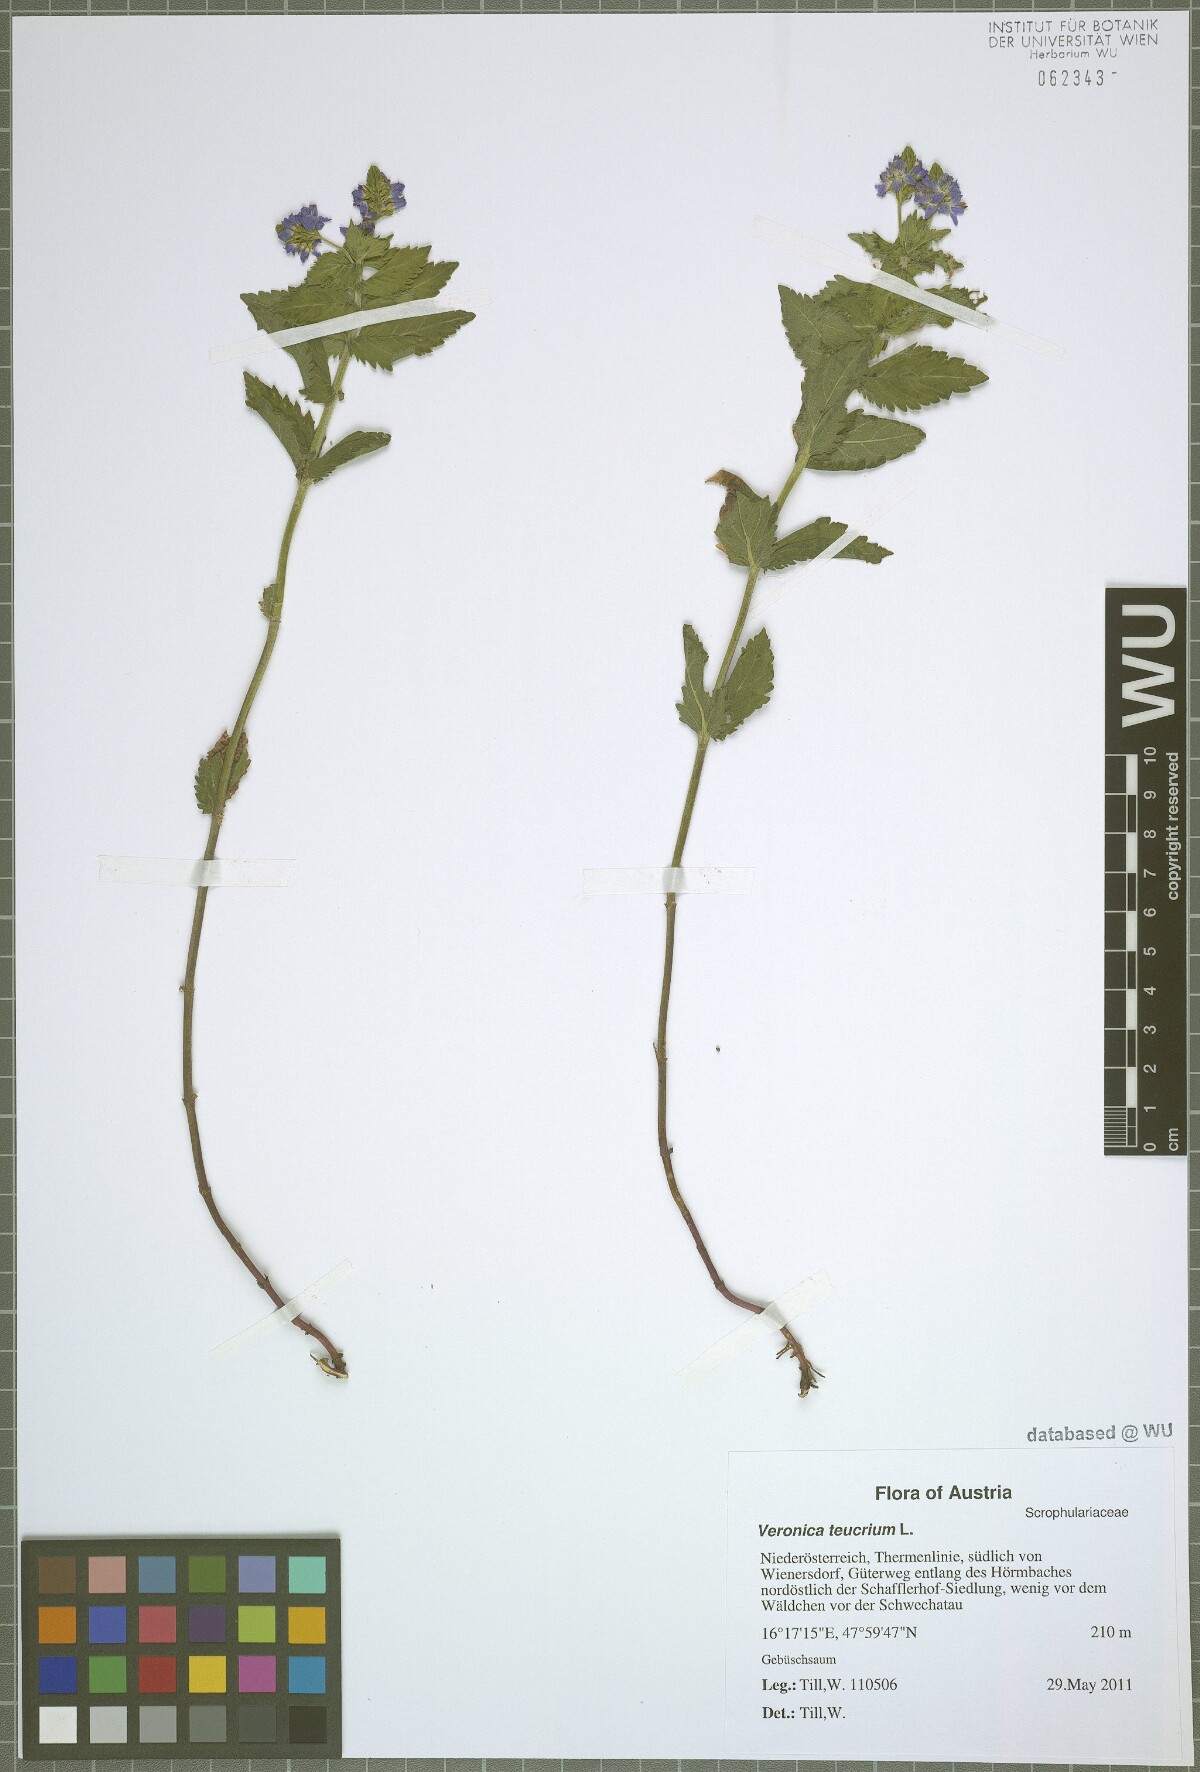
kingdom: Plantae
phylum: Tracheophyta
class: Magnoliopsida
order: Lamiales
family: Plantaginaceae
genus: Veronica
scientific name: Veronica teucrium
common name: Large speedwell
